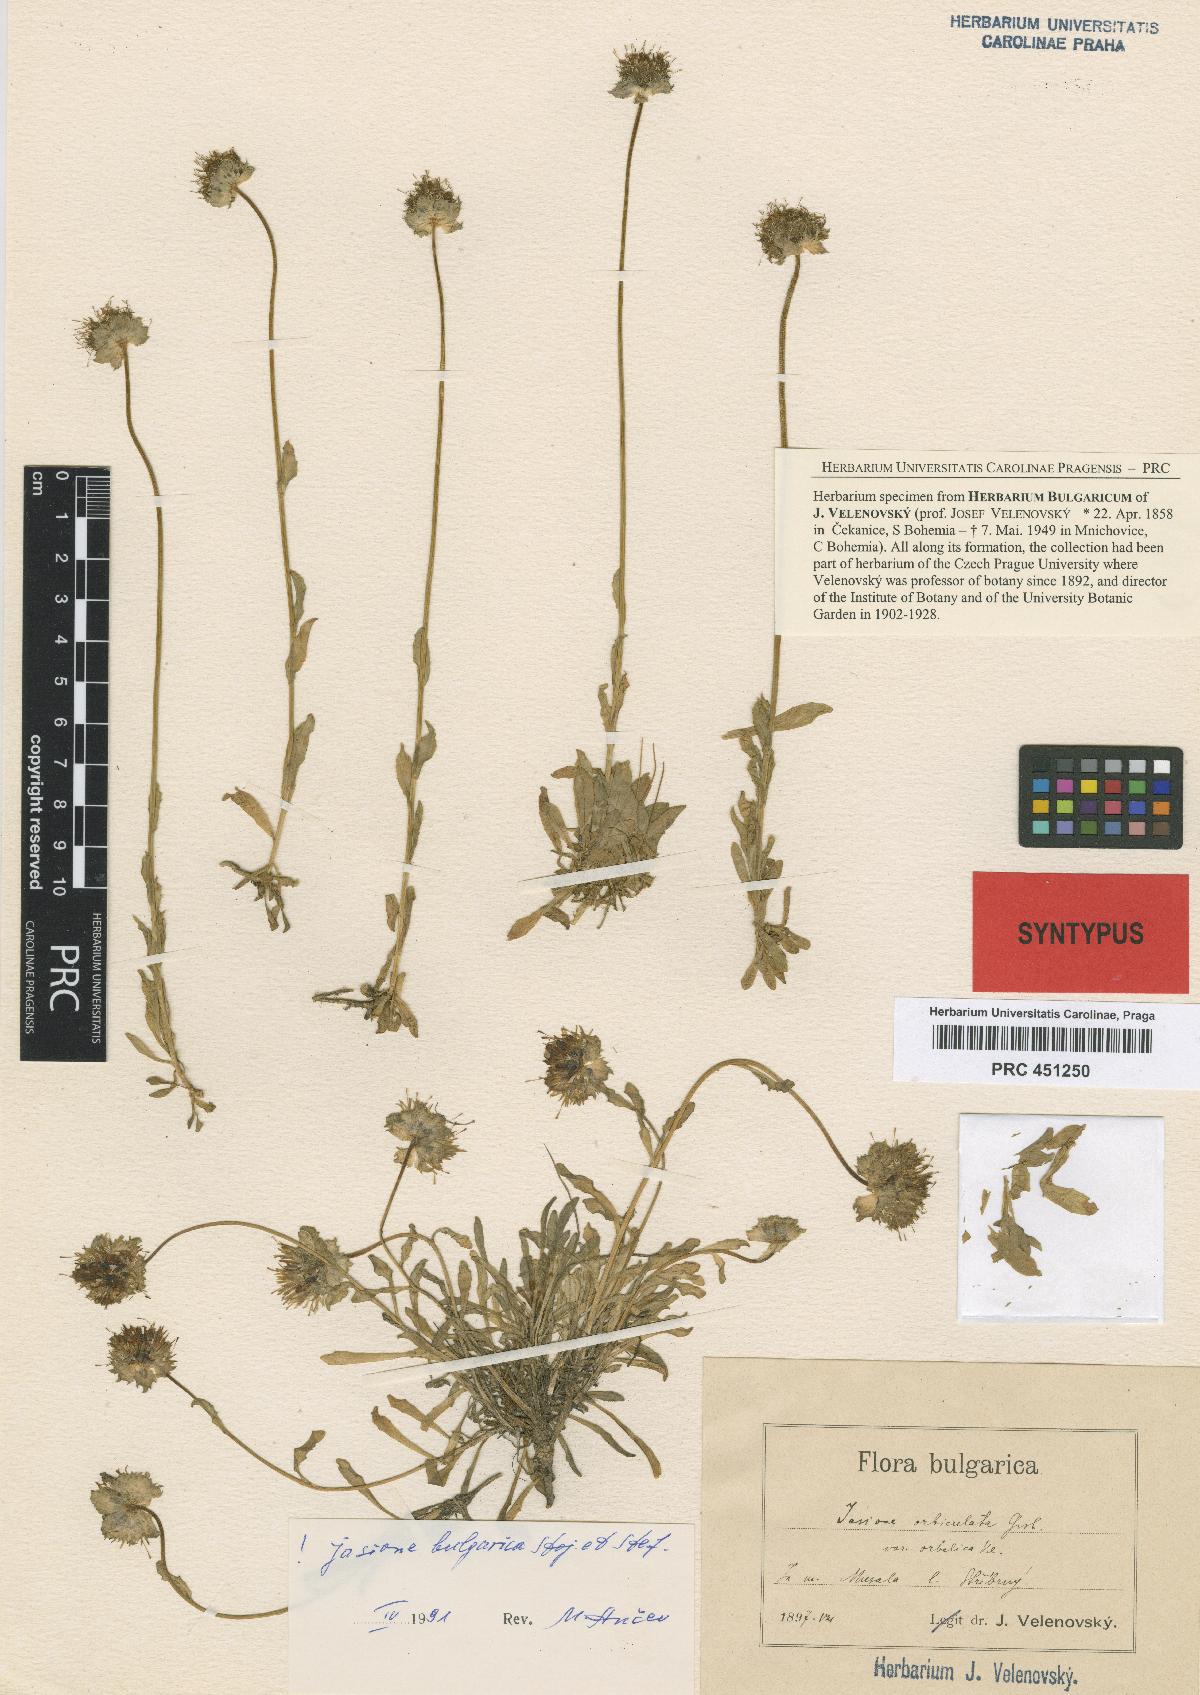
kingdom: Plantae
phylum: Tracheophyta
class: Magnoliopsida
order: Asterales
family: Campanulaceae
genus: Jasione
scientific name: Jasione orbiculata
